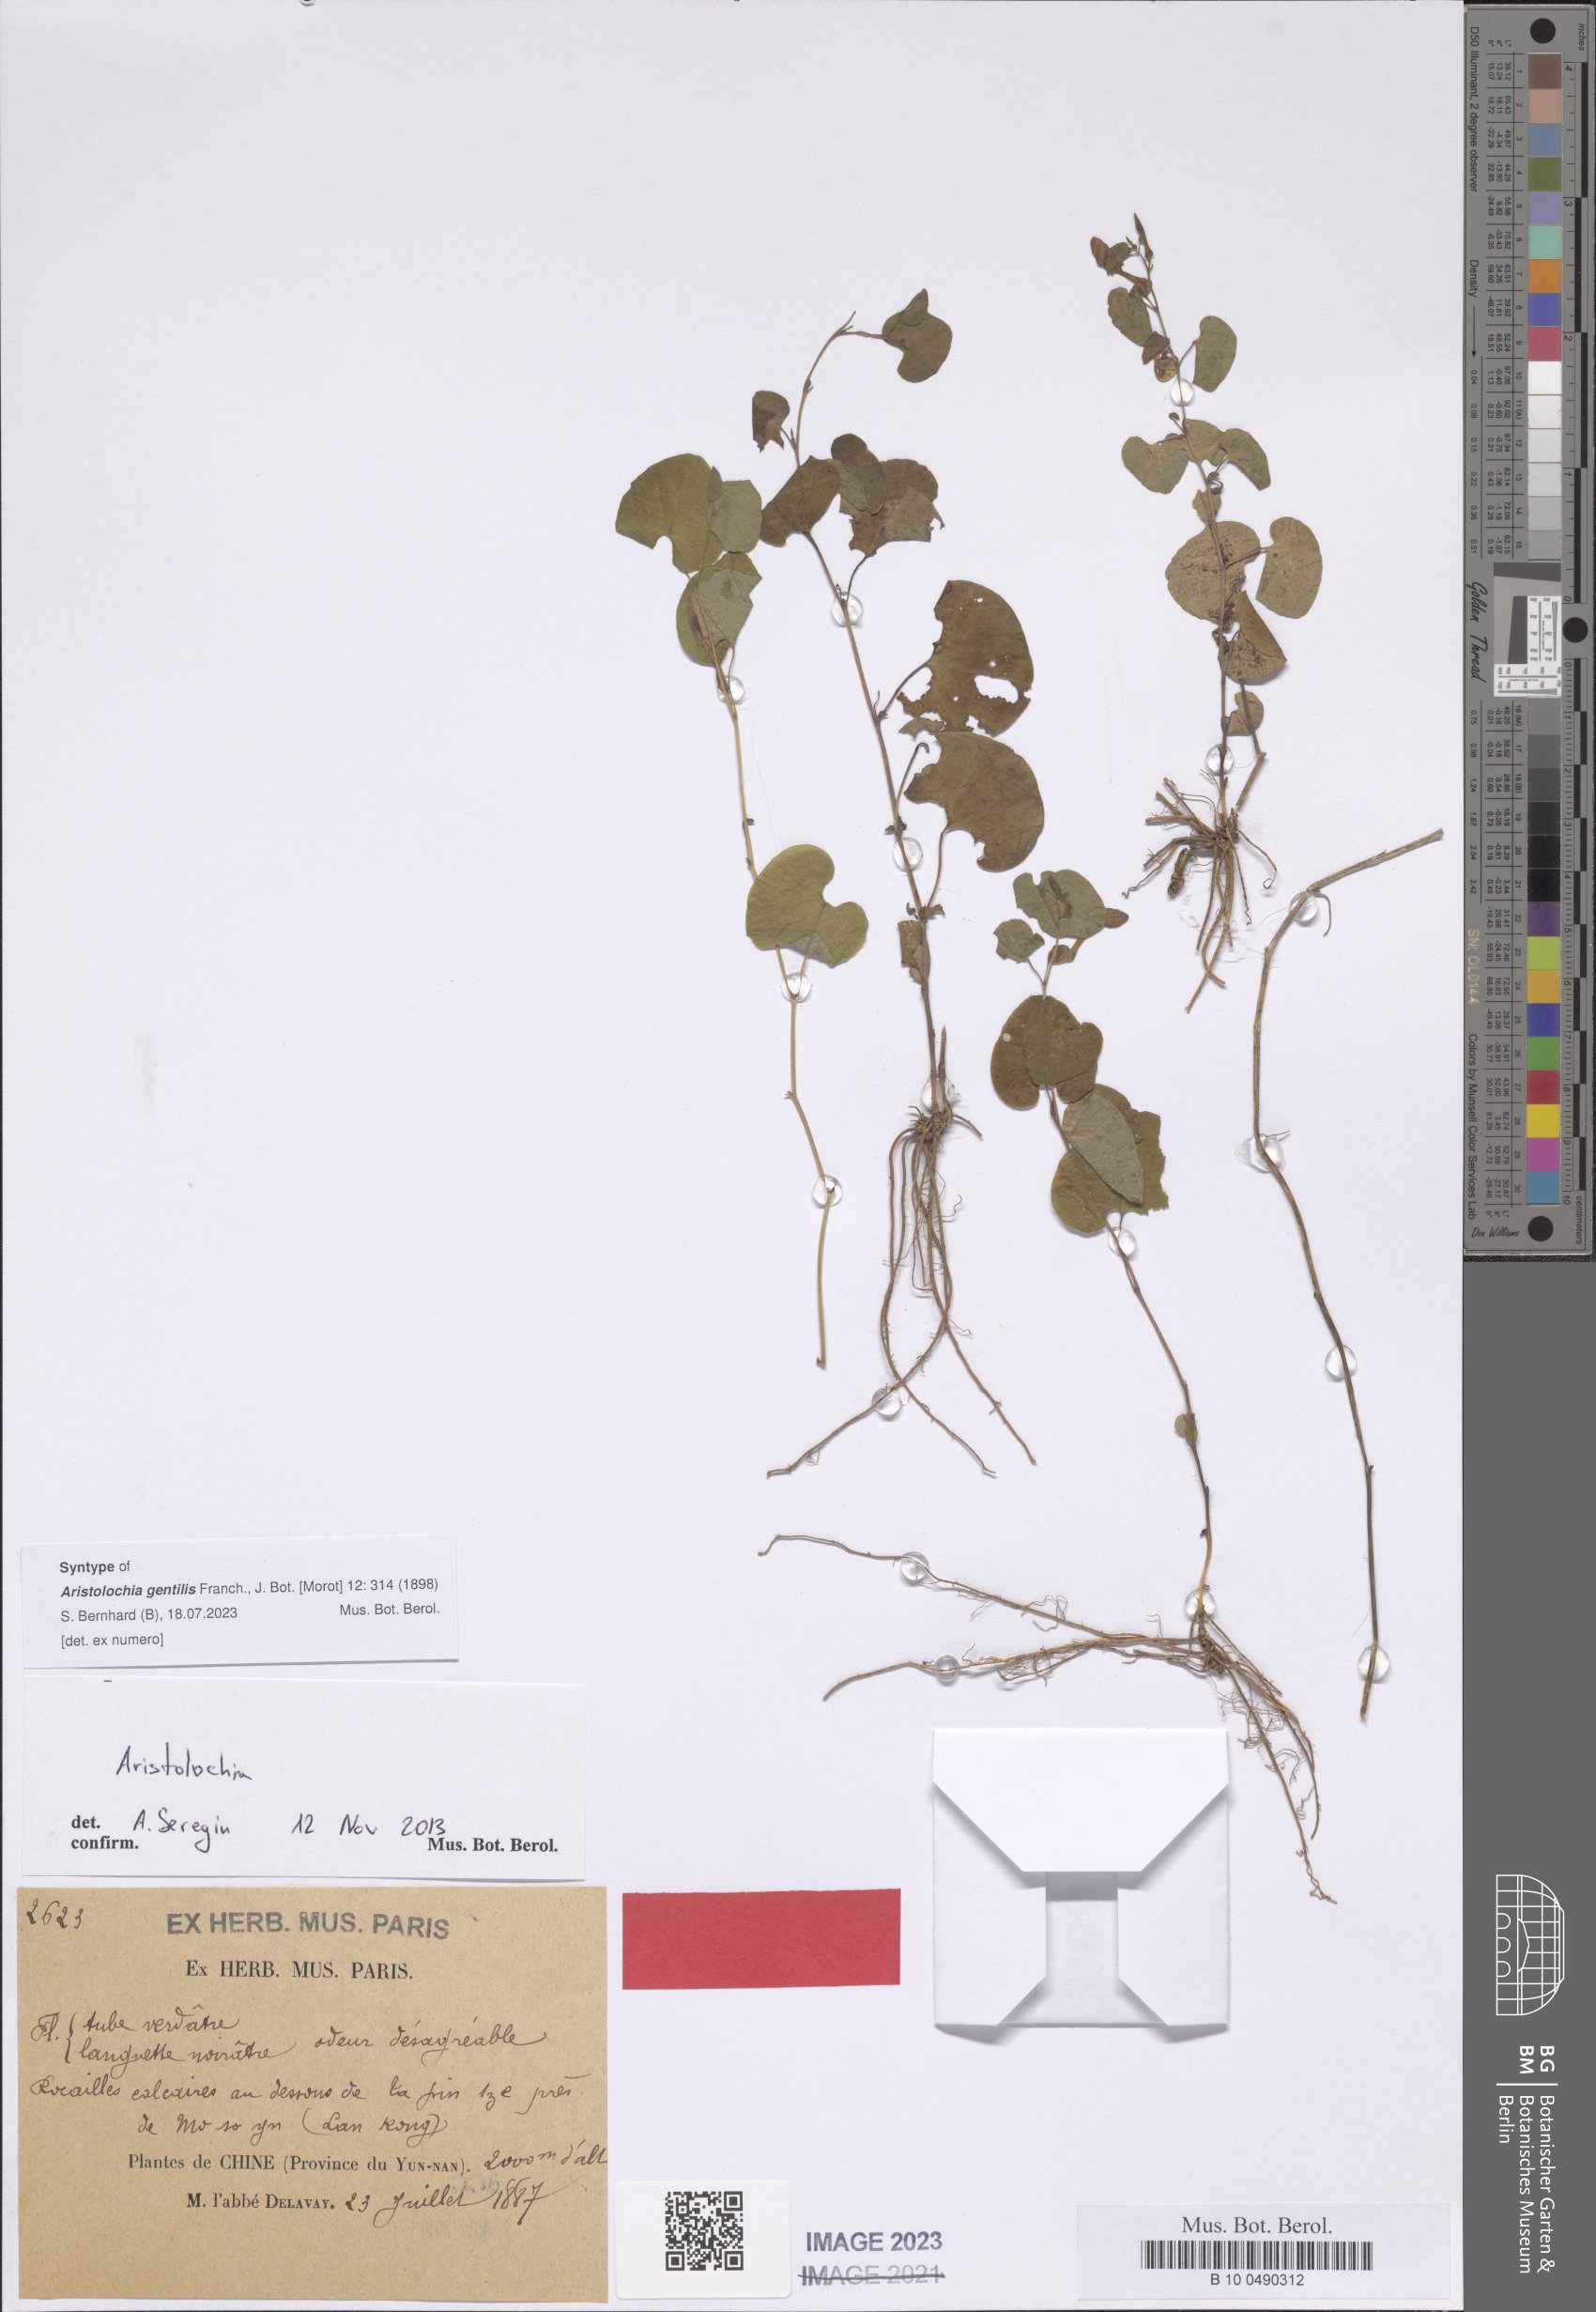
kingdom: Plantae
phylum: Tracheophyta
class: Magnoliopsida
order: Piperales
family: Aristolochiaceae
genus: Aristolochia
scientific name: Aristolochia tubiflora
